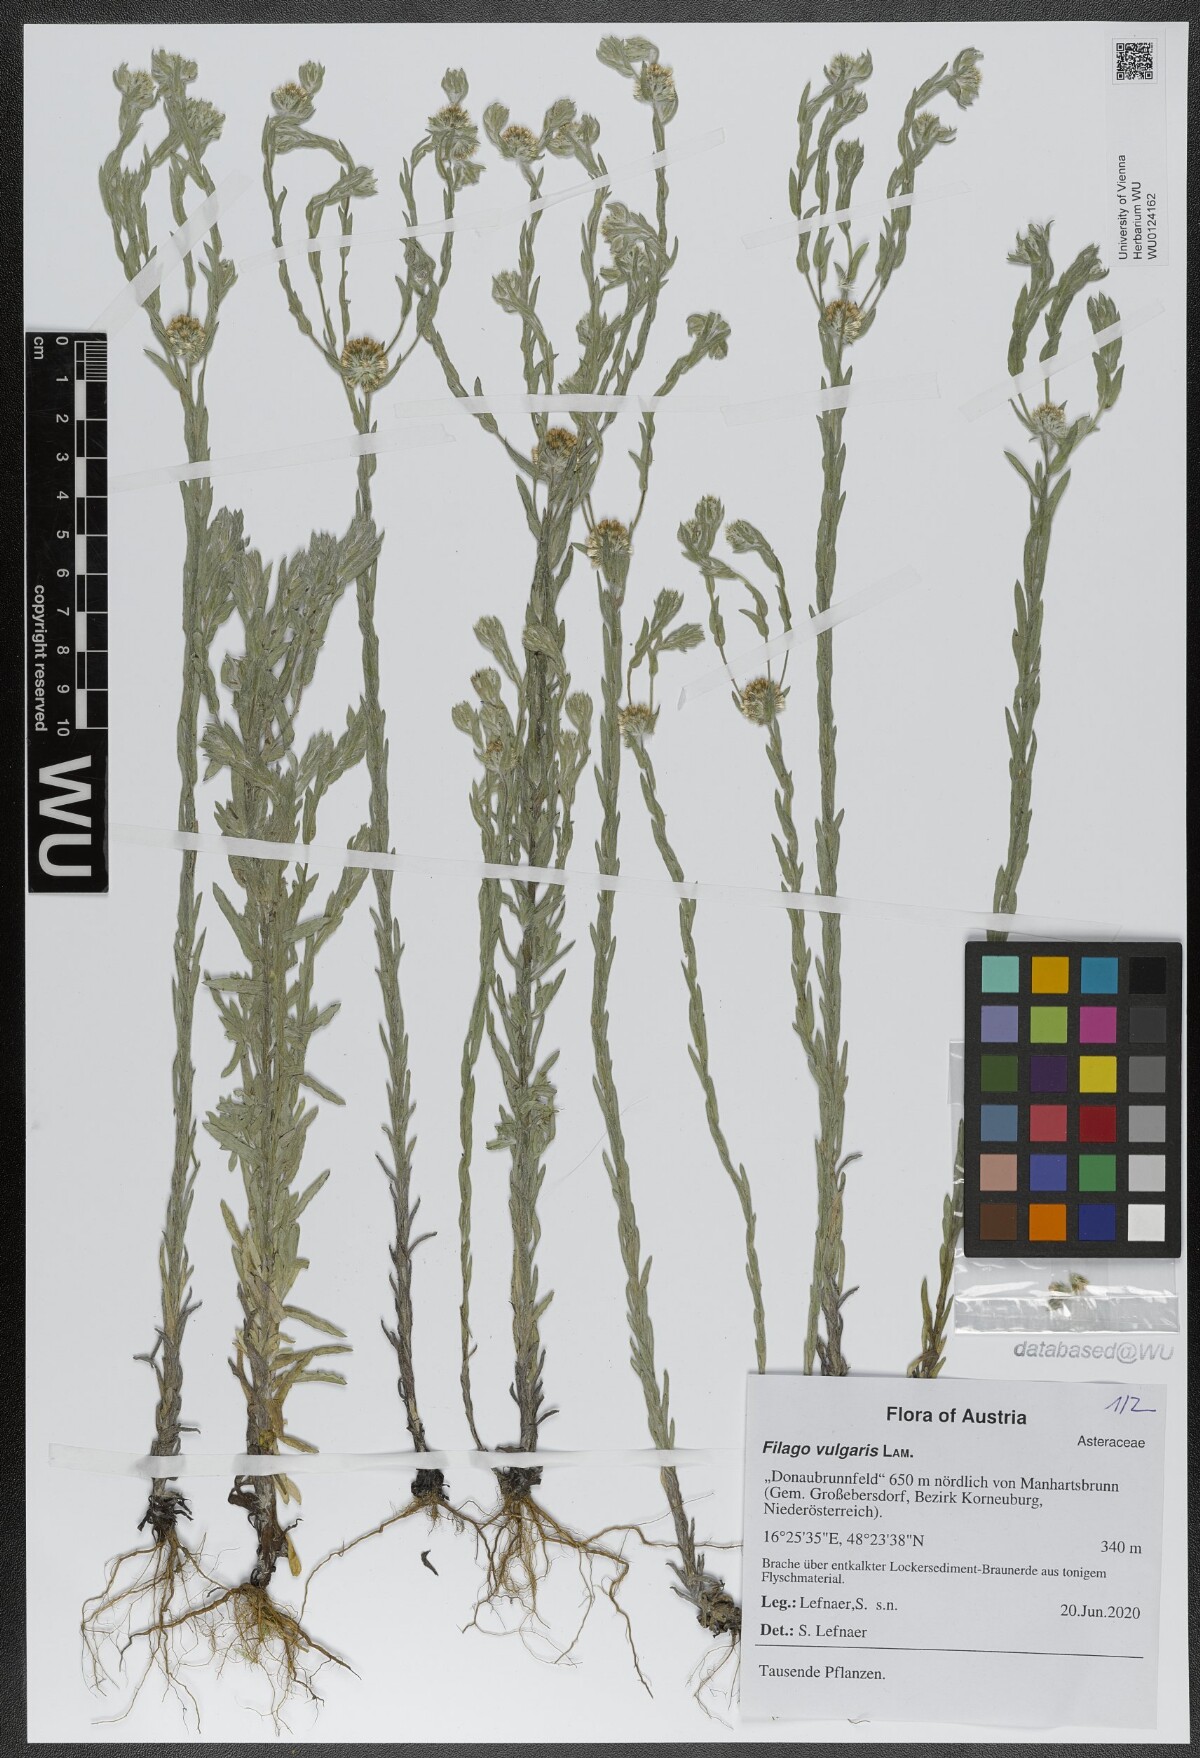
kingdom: Plantae
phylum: Tracheophyta
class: Magnoliopsida
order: Asterales
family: Asteraceae
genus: Filago
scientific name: Filago germanica
